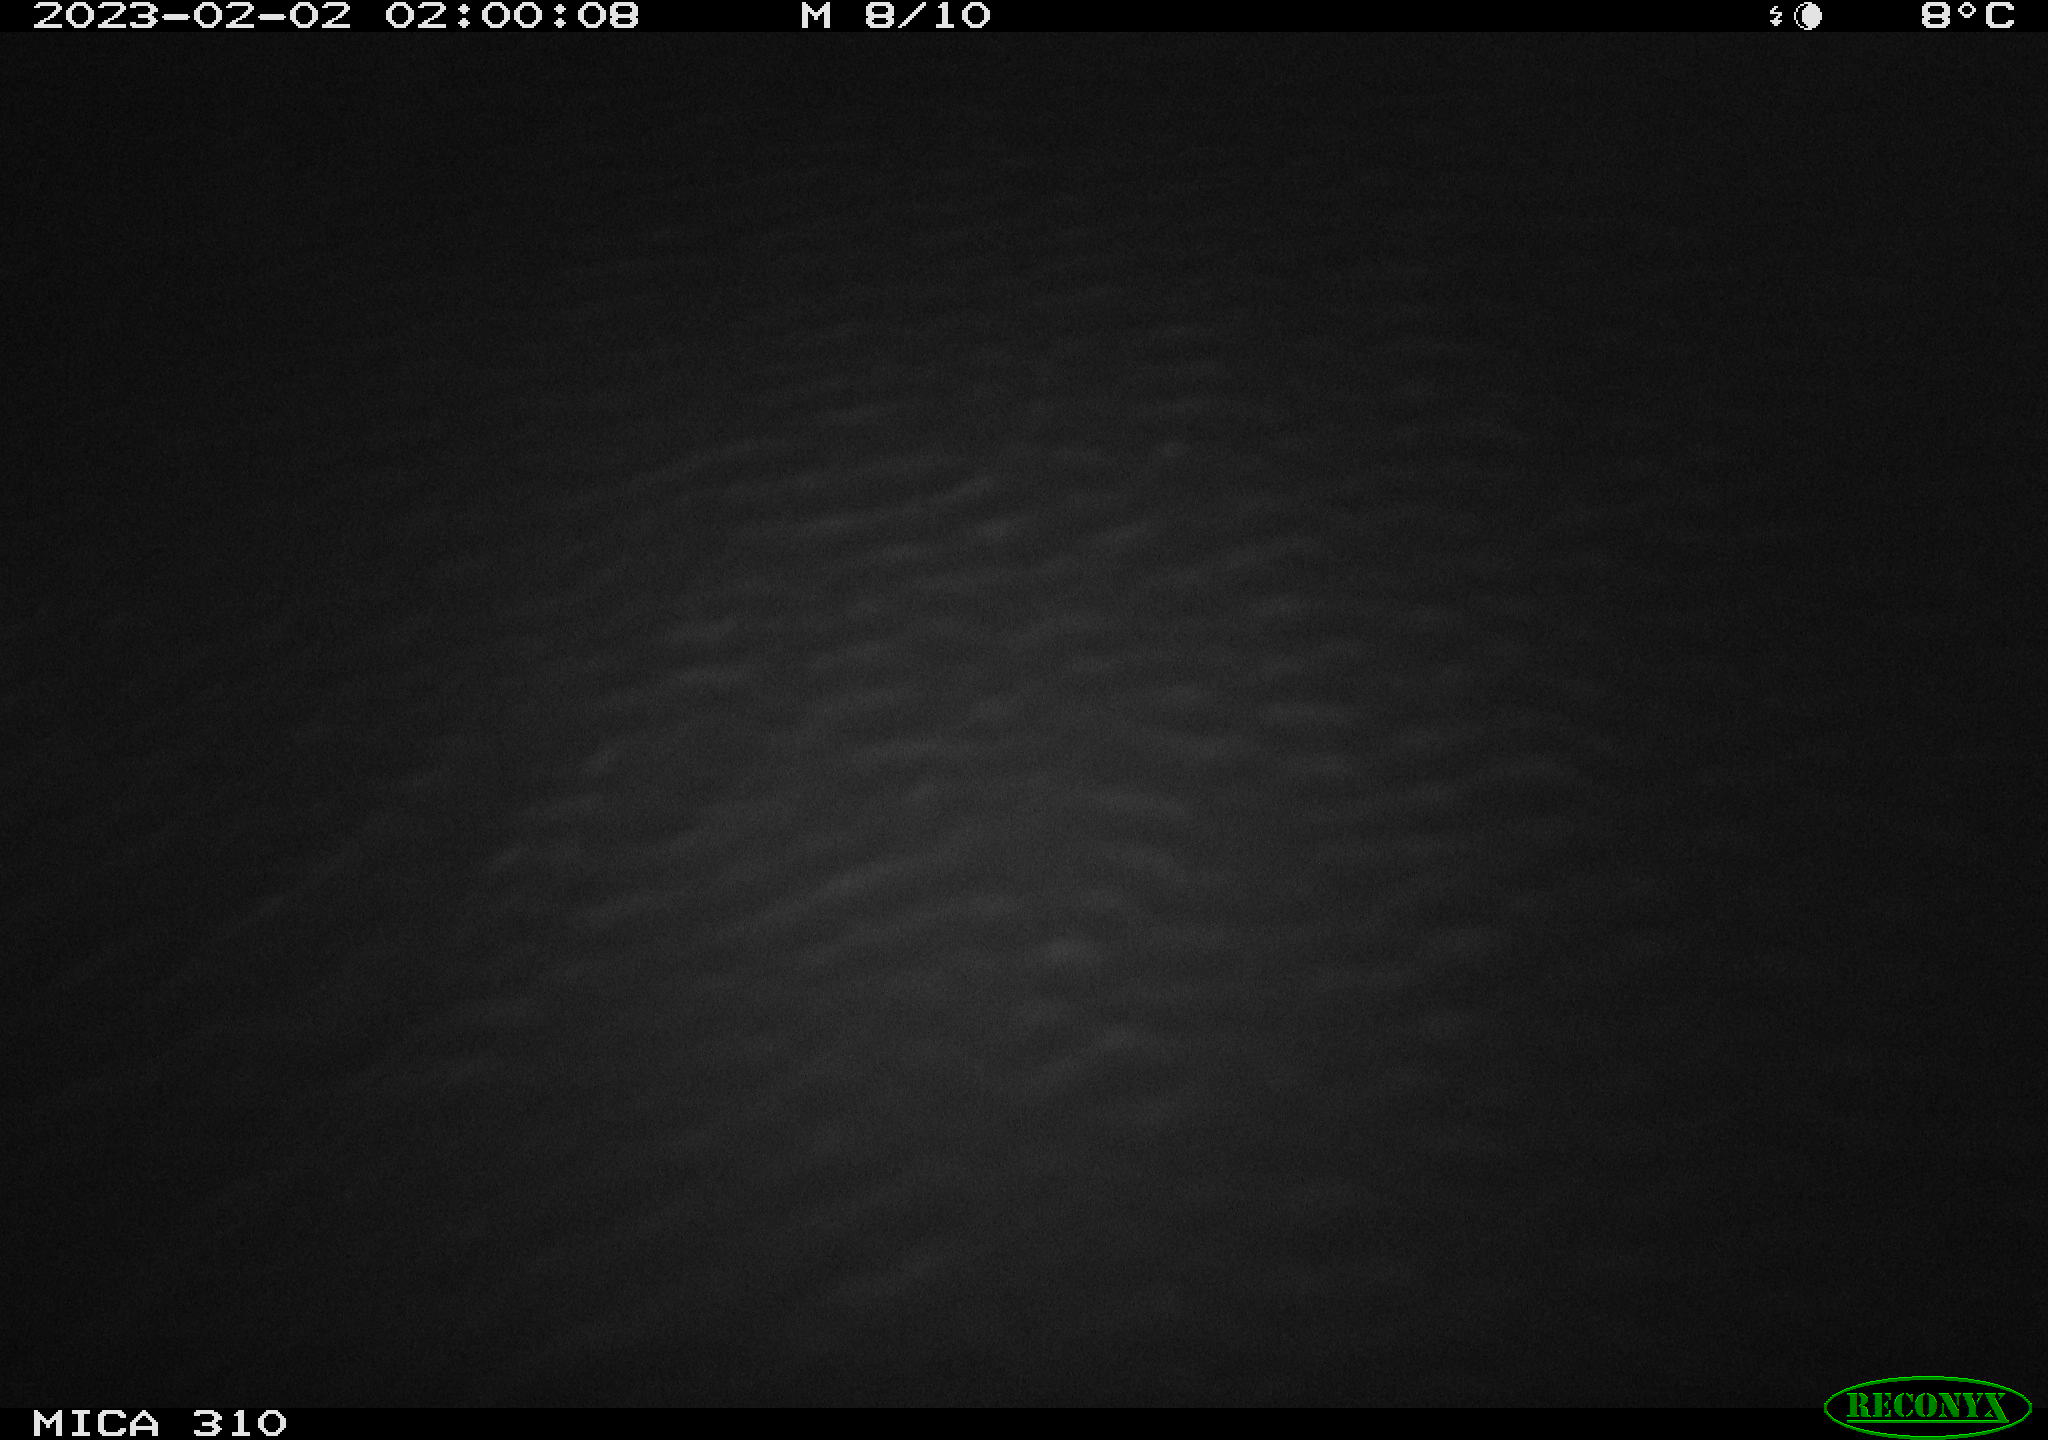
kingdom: Animalia
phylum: Chordata
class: Aves
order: Anseriformes
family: Anatidae
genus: Anas
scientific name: Anas
